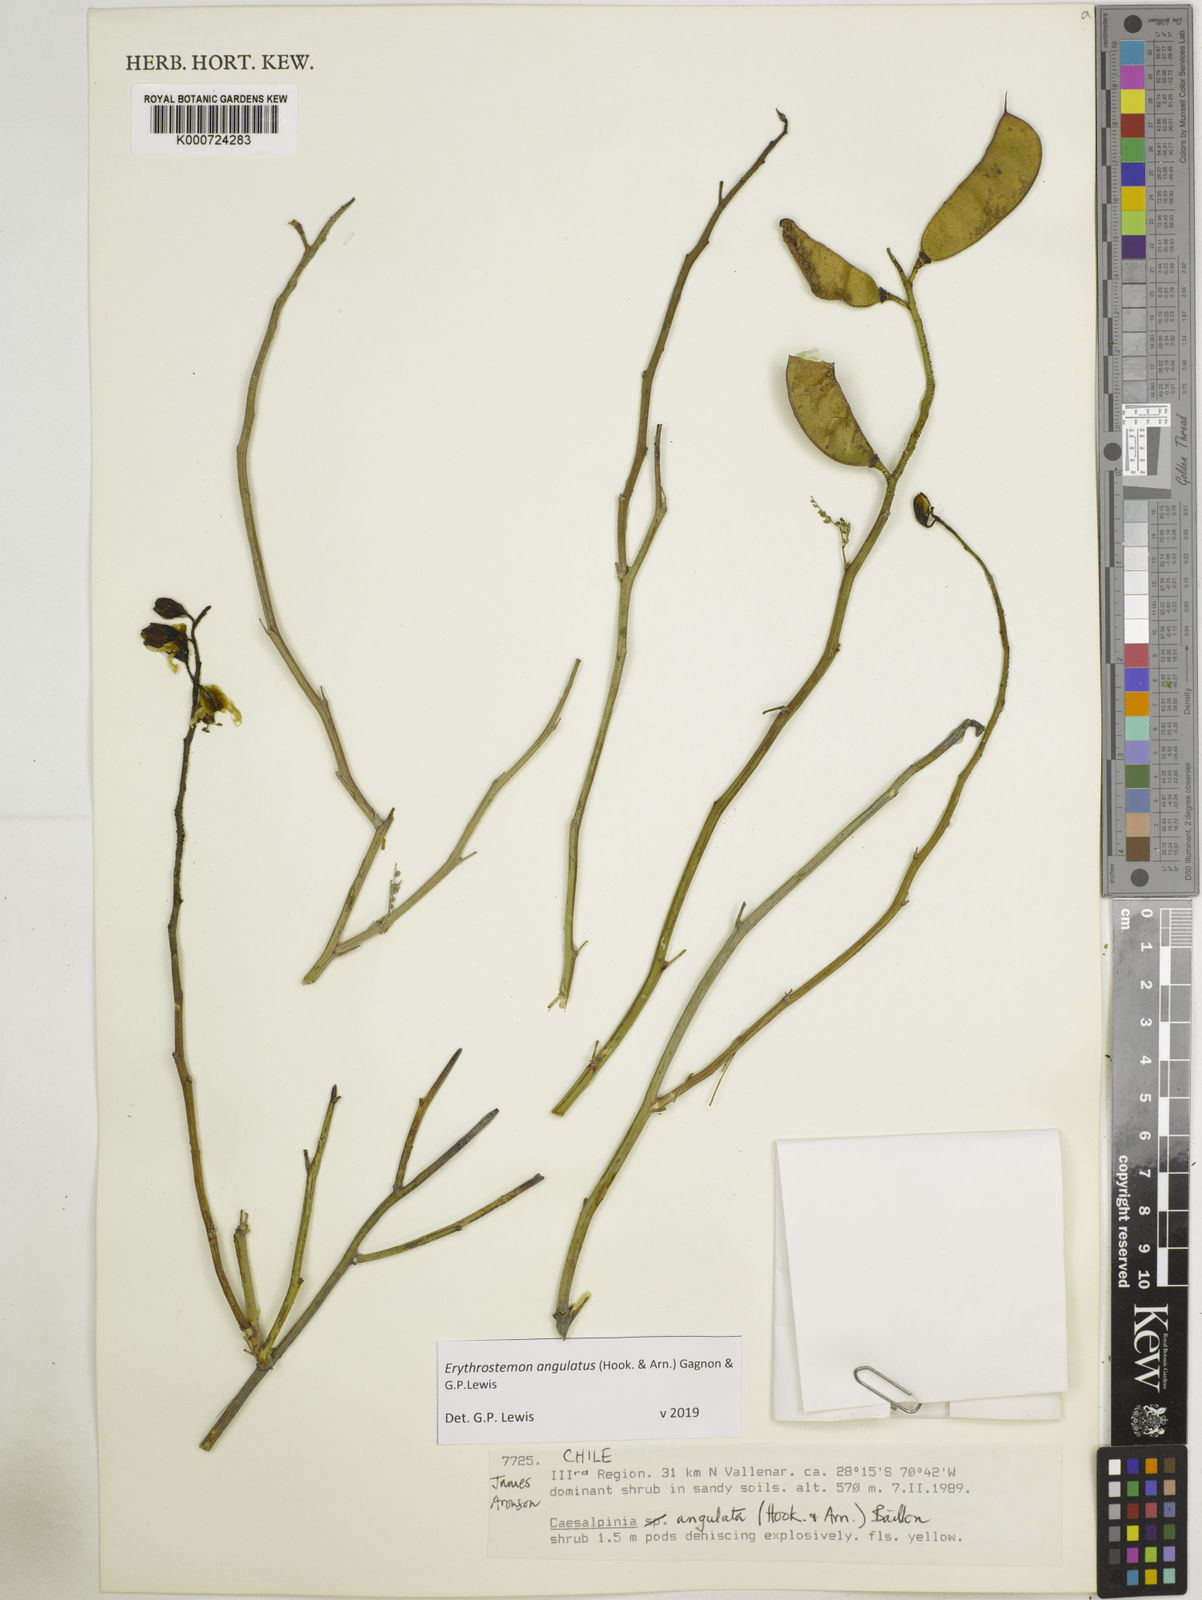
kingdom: Plantae
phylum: Tracheophyta
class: Magnoliopsida
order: Fabales
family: Fabaceae
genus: Caesalpinia
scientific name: Caesalpinia
